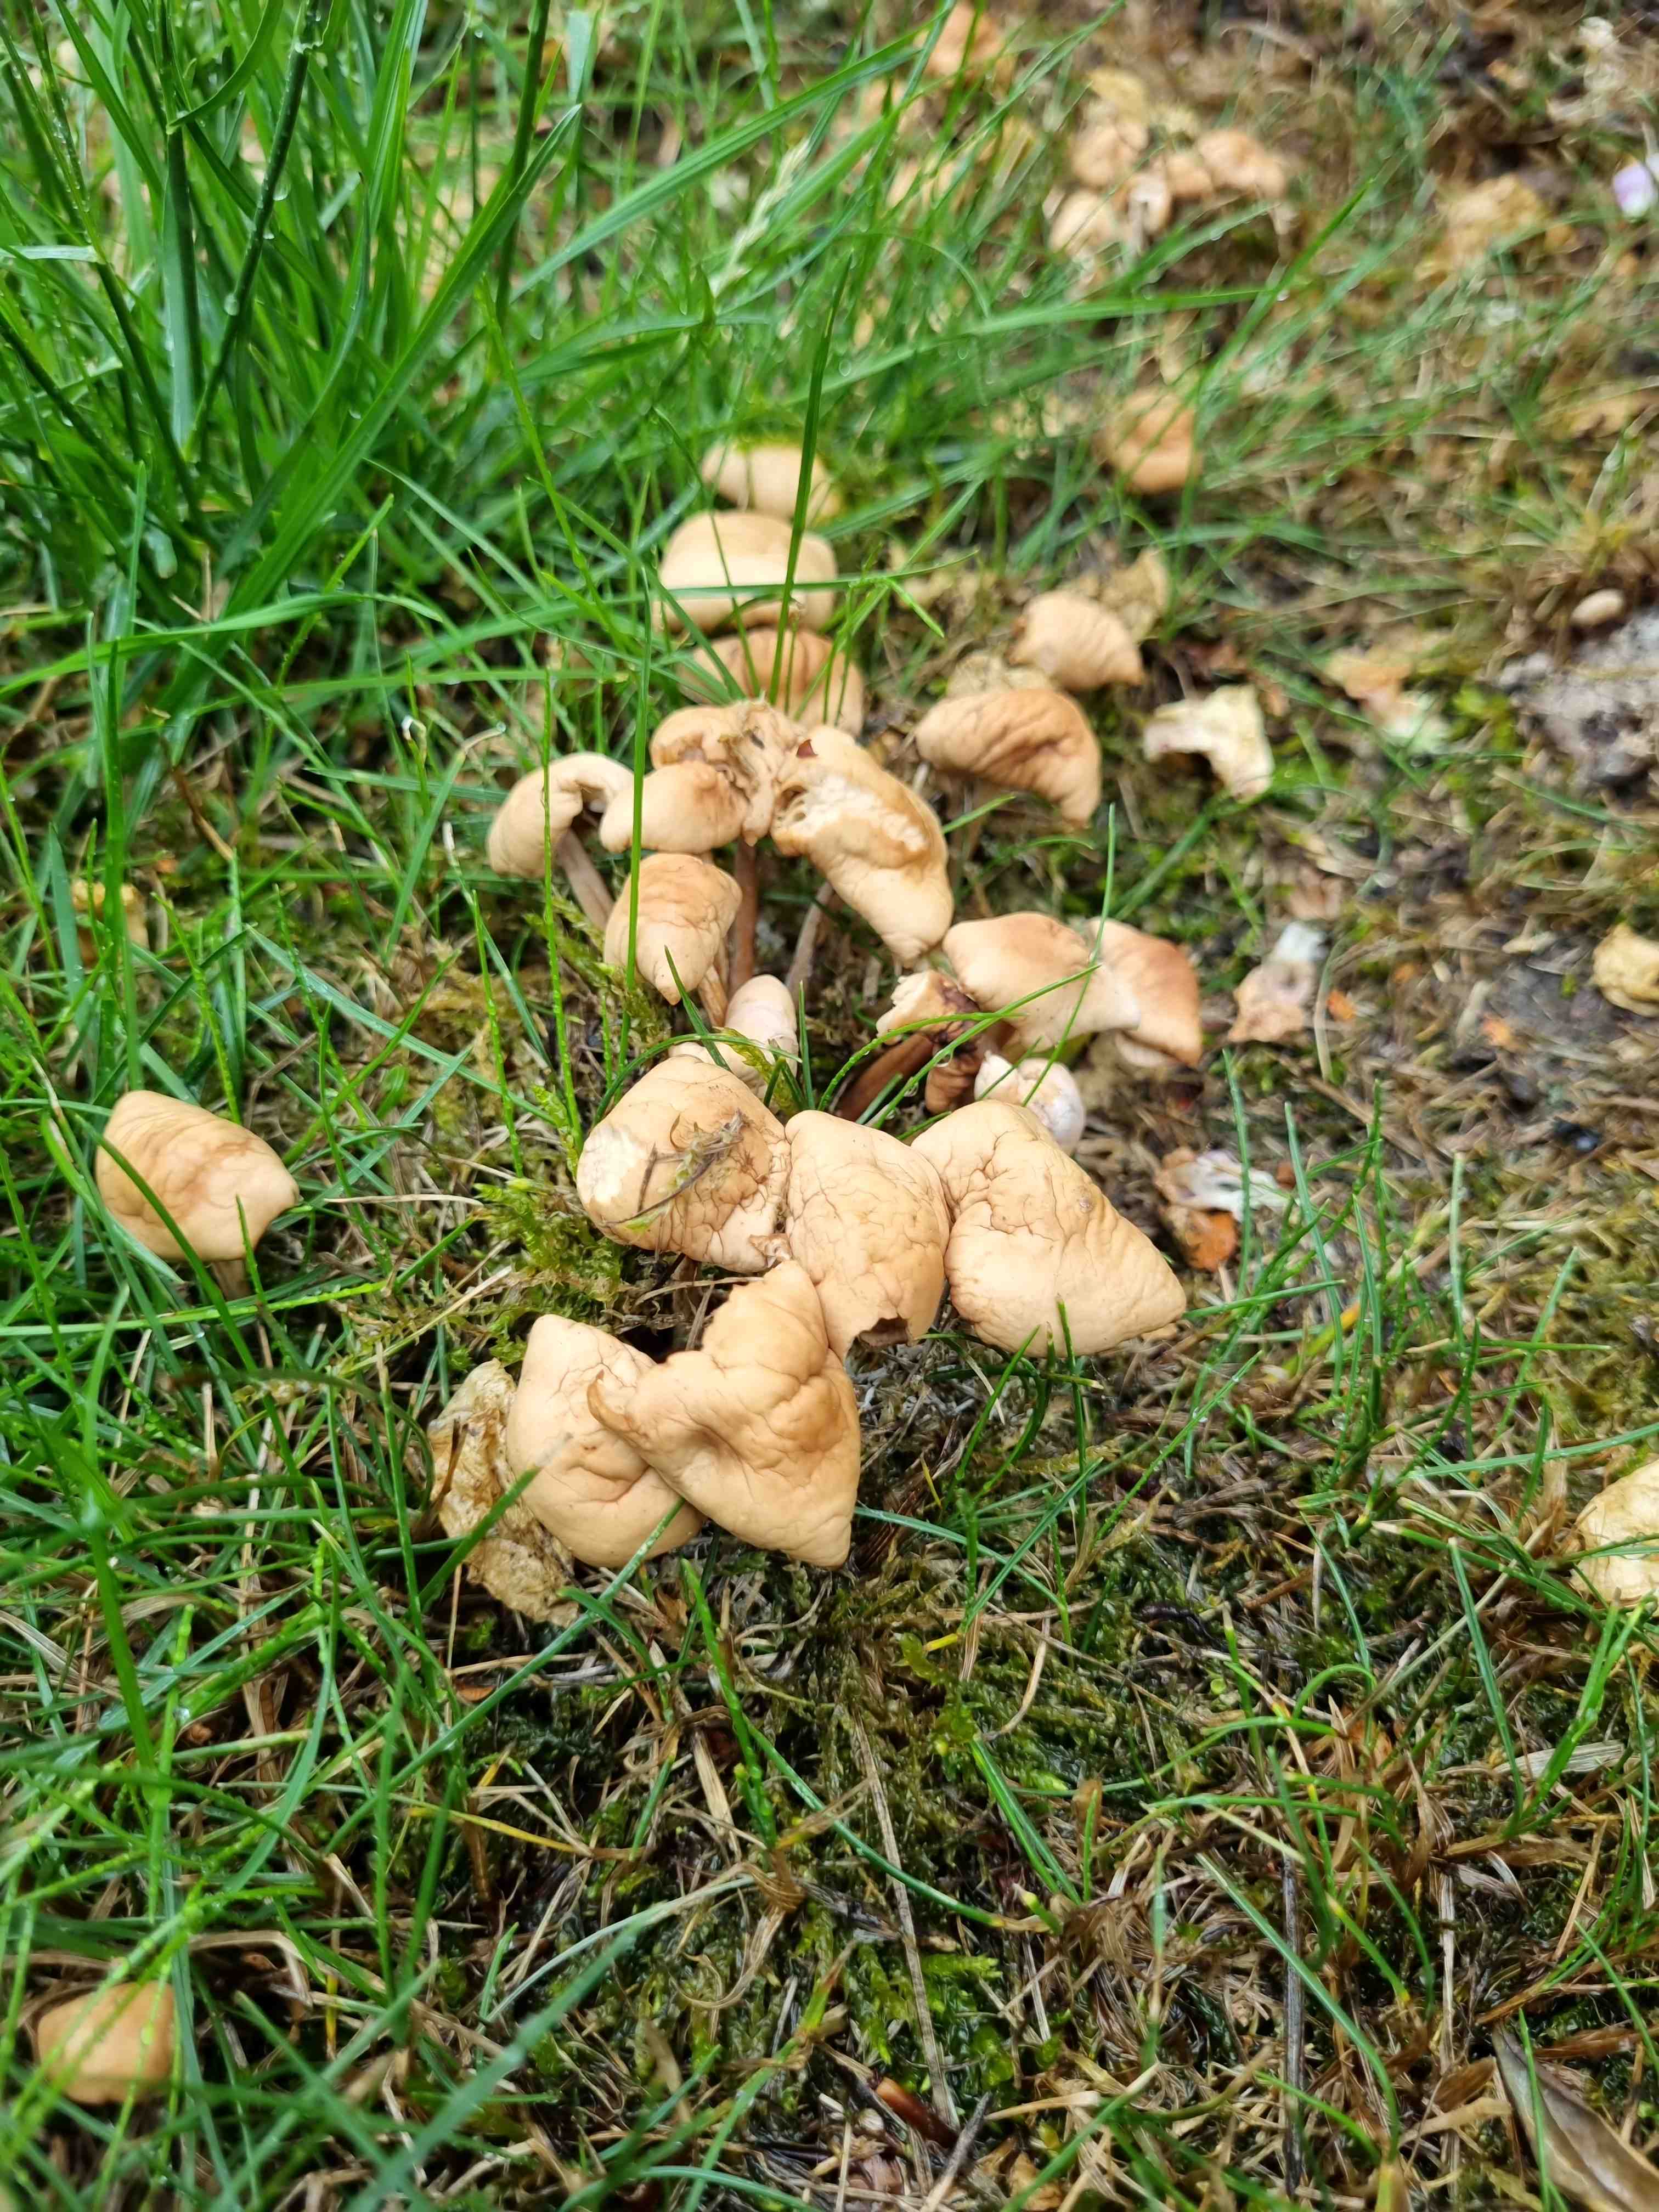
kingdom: Fungi
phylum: Basidiomycota
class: Agaricomycetes
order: Agaricales
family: Marasmiaceae
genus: Marasmius
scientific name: Marasmius oreades
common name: elledans-bruskhat
